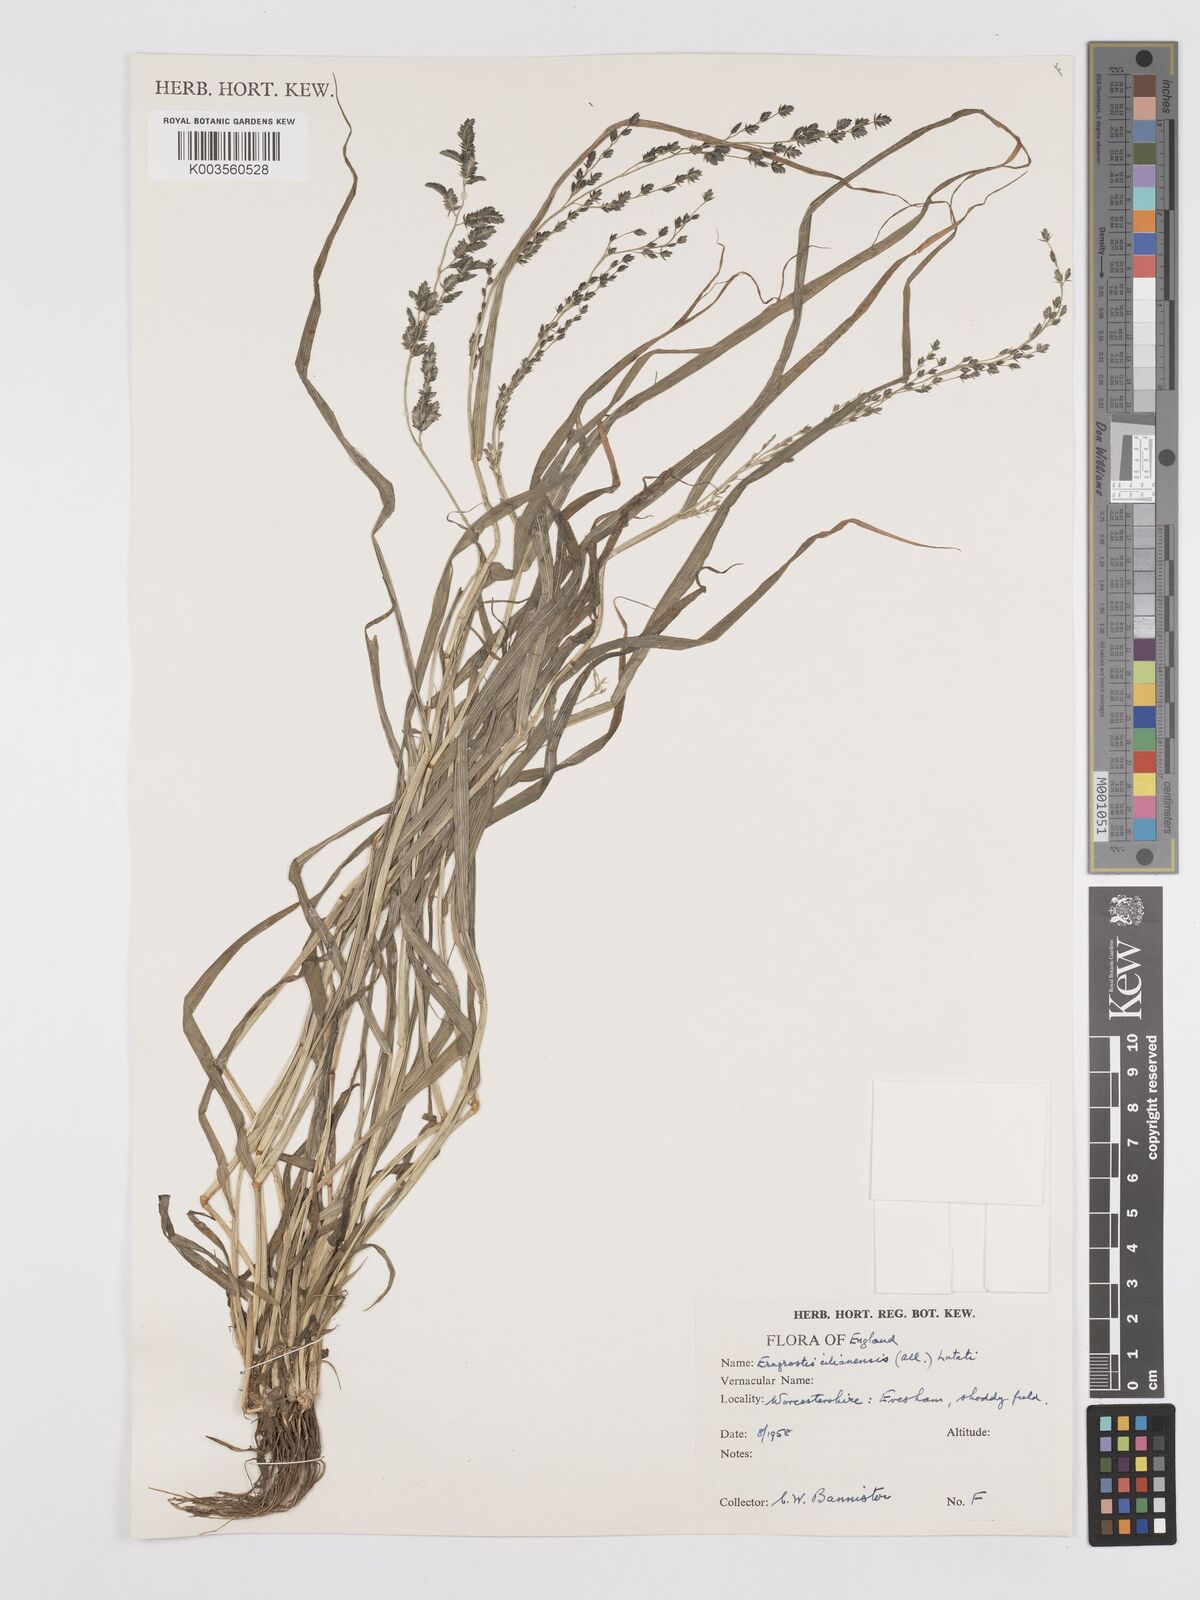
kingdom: Plantae
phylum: Tracheophyta
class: Liliopsida
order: Poales
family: Poaceae
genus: Eragrostis
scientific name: Eragrostis cilianensis
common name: Stinkgrass
